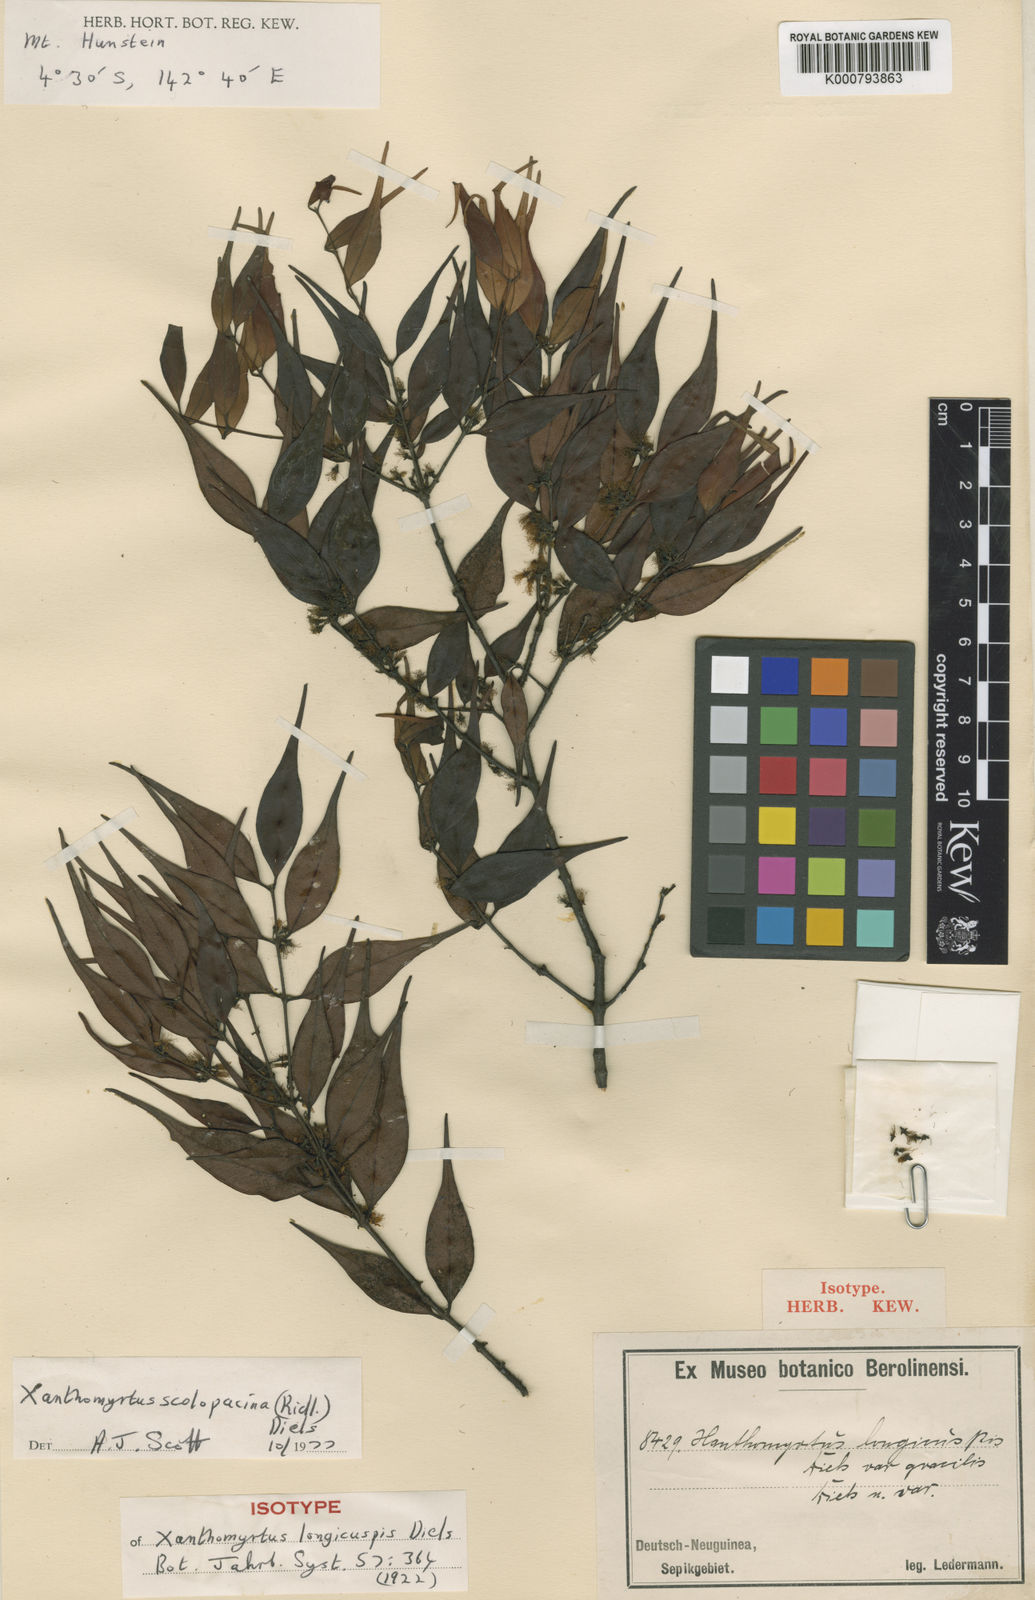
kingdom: Plantae
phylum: Tracheophyta
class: Magnoliopsida
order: Myrtales
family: Myrtaceae
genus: Xanthomyrtus
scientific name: Xanthomyrtus scolopacina
